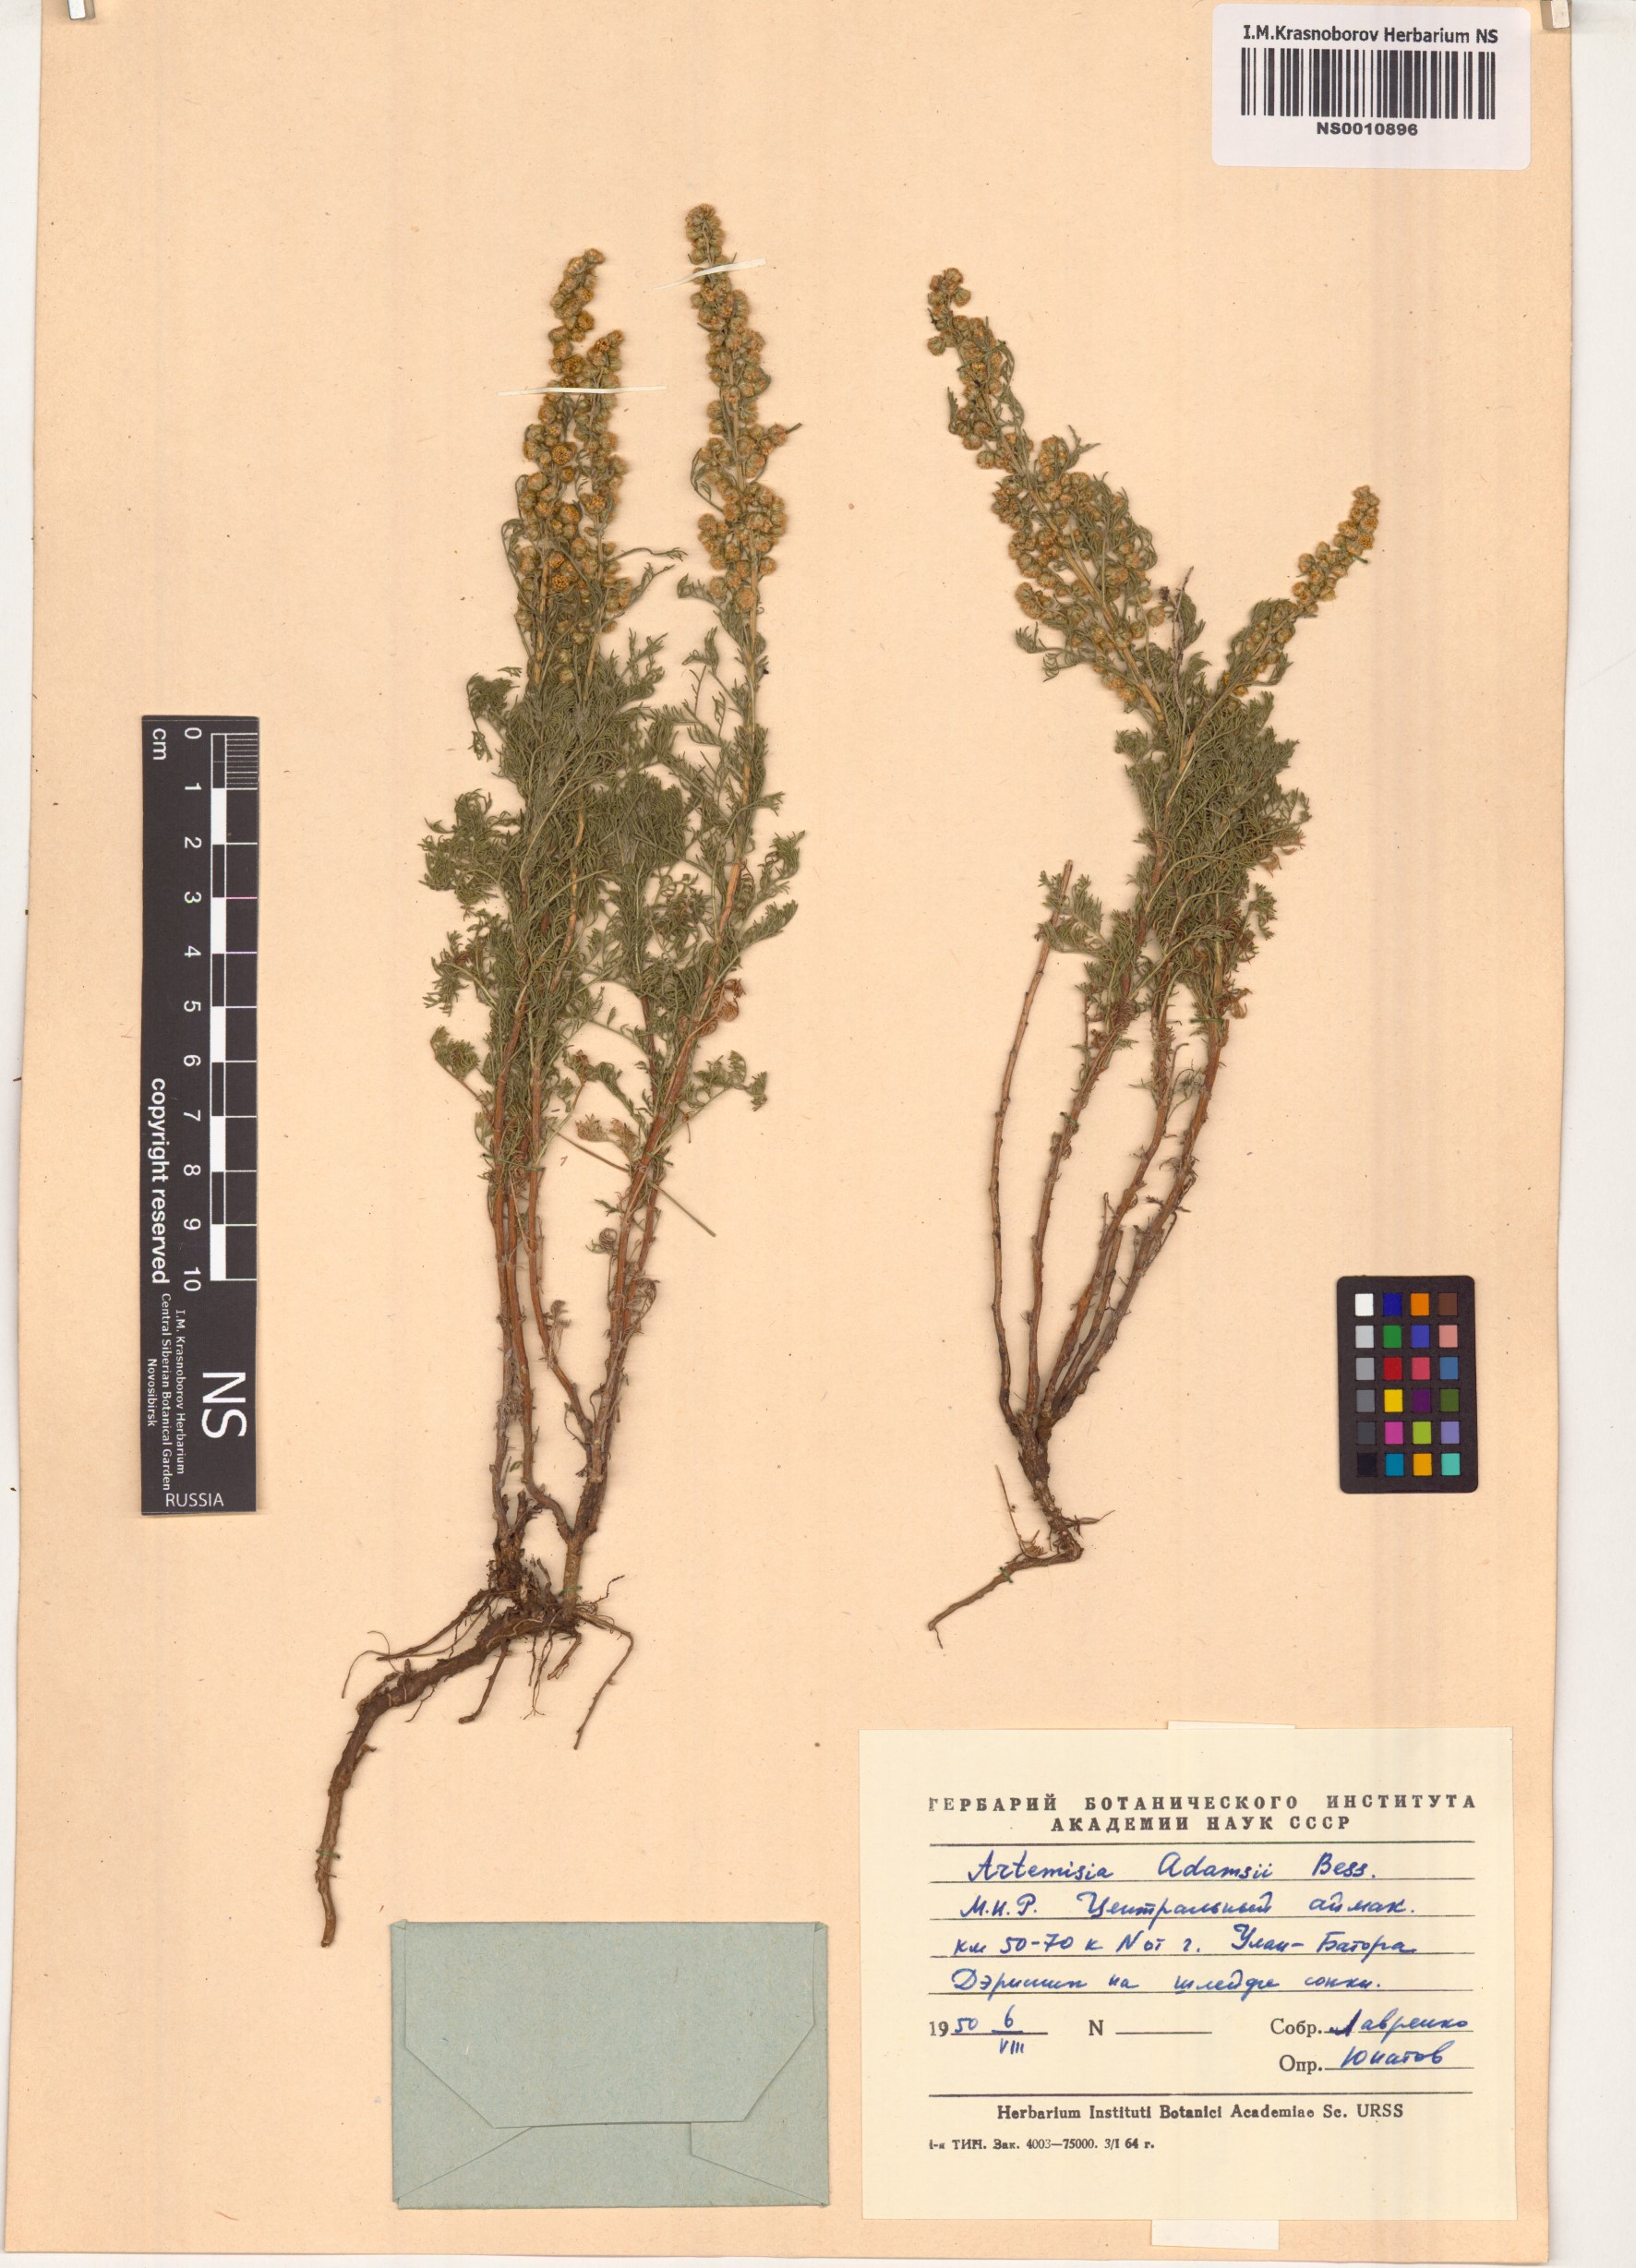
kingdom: Plantae
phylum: Tracheophyta
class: Magnoliopsida
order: Asterales
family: Asteraceae
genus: Artemisia
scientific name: Artemisia adamsii
